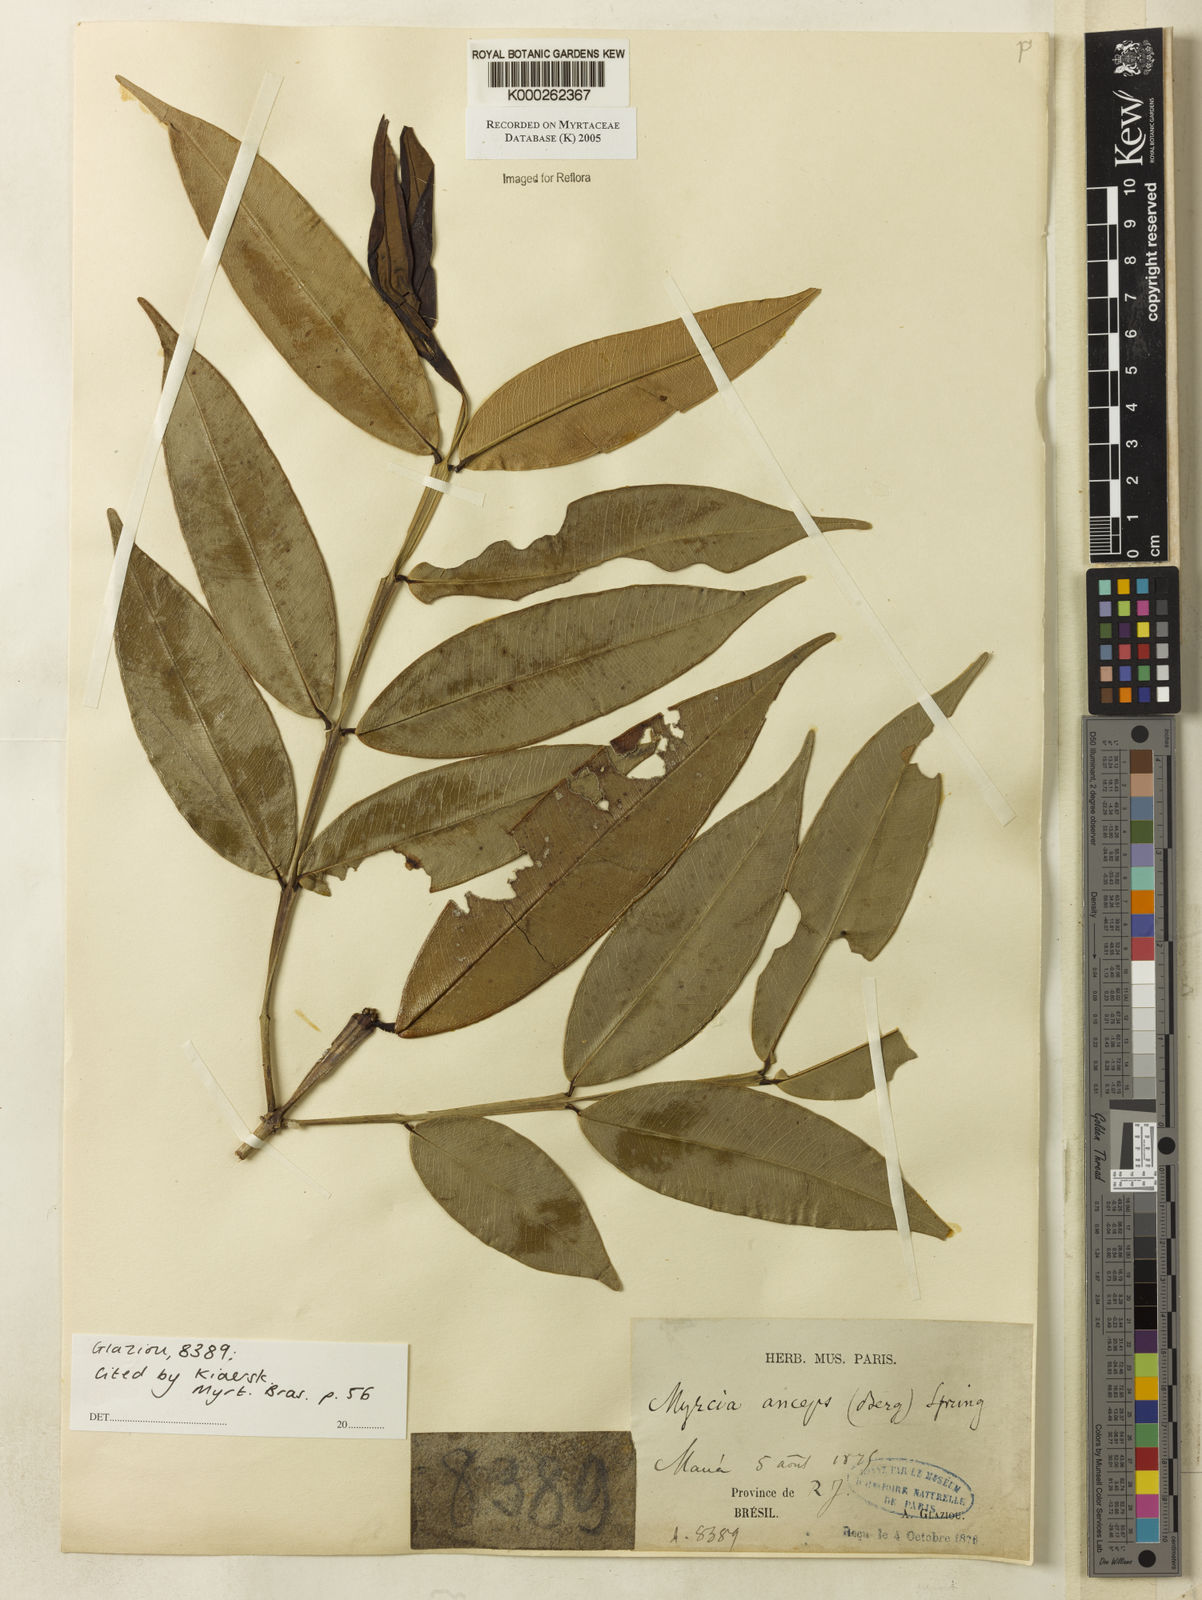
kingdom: Plantae
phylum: Tracheophyta
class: Magnoliopsida
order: Myrtales
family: Myrtaceae
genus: Myrcia
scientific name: Myrcia anceps
